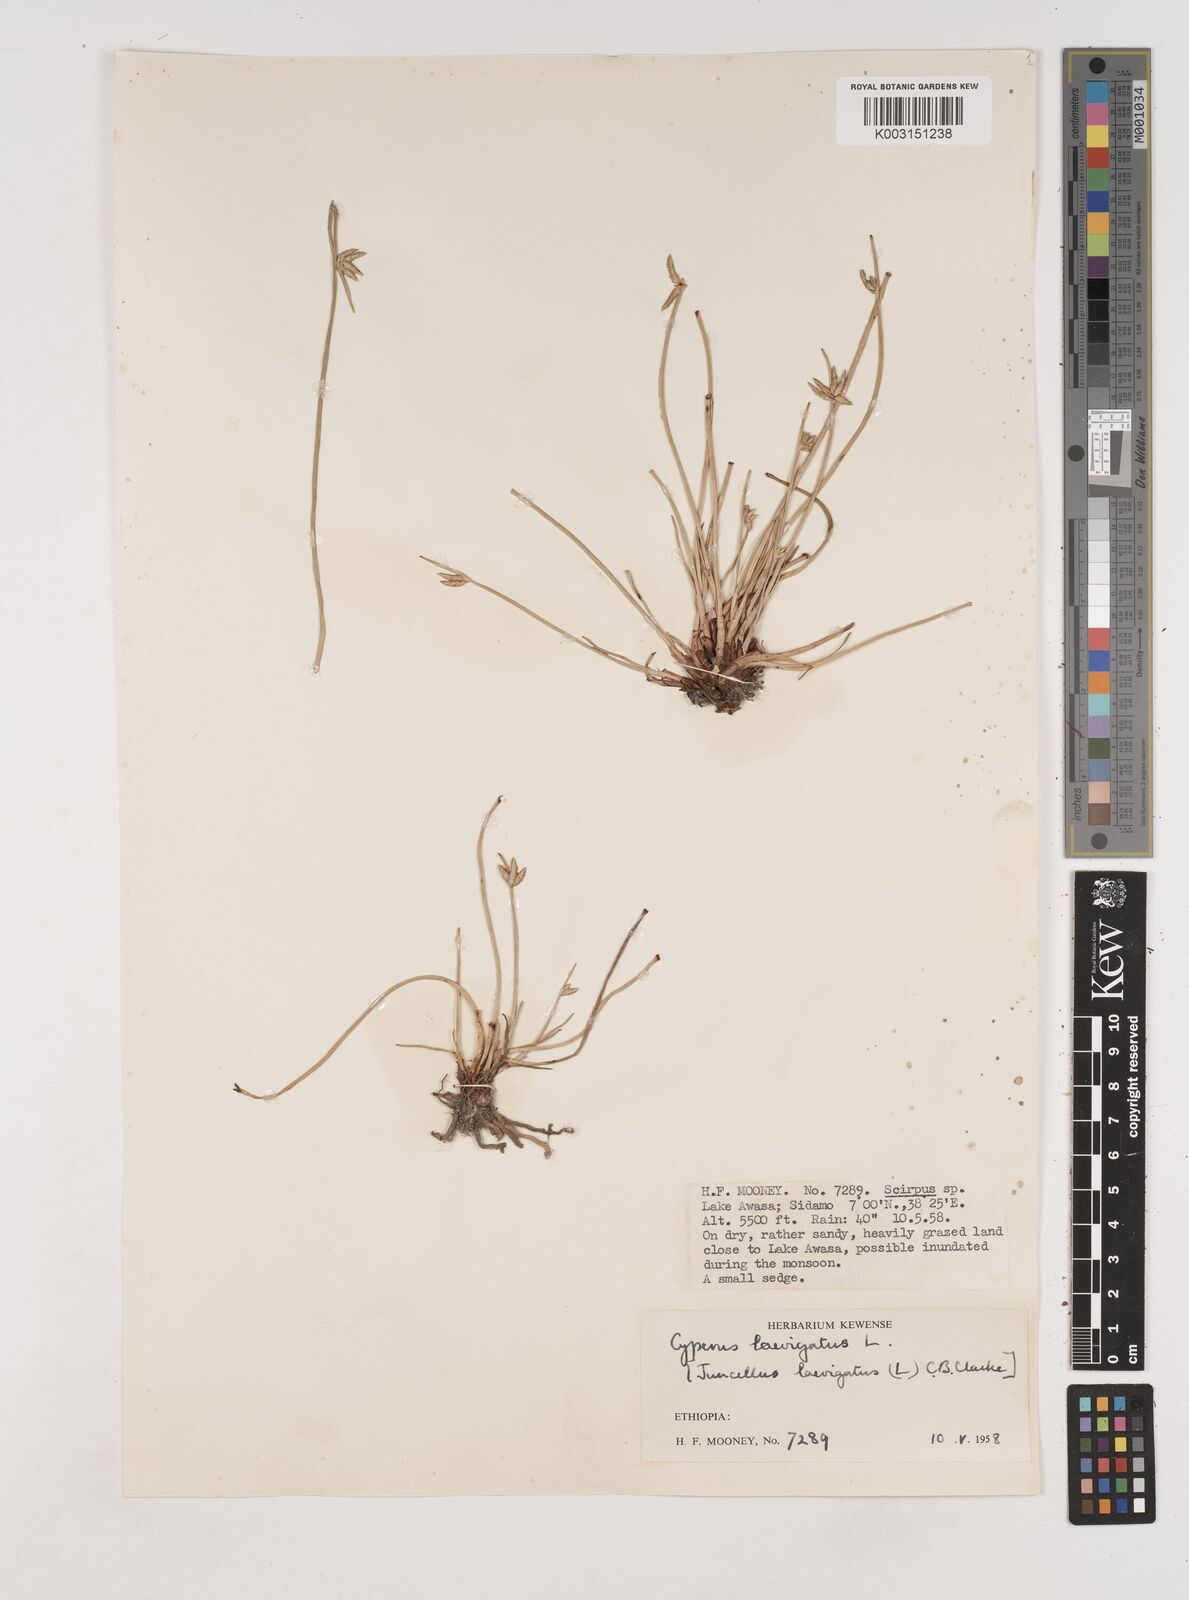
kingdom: Plantae
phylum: Tracheophyta
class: Liliopsida
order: Poales
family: Cyperaceae
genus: Cyperus
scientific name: Cyperus laevigatus
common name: Smooth flat sedge
